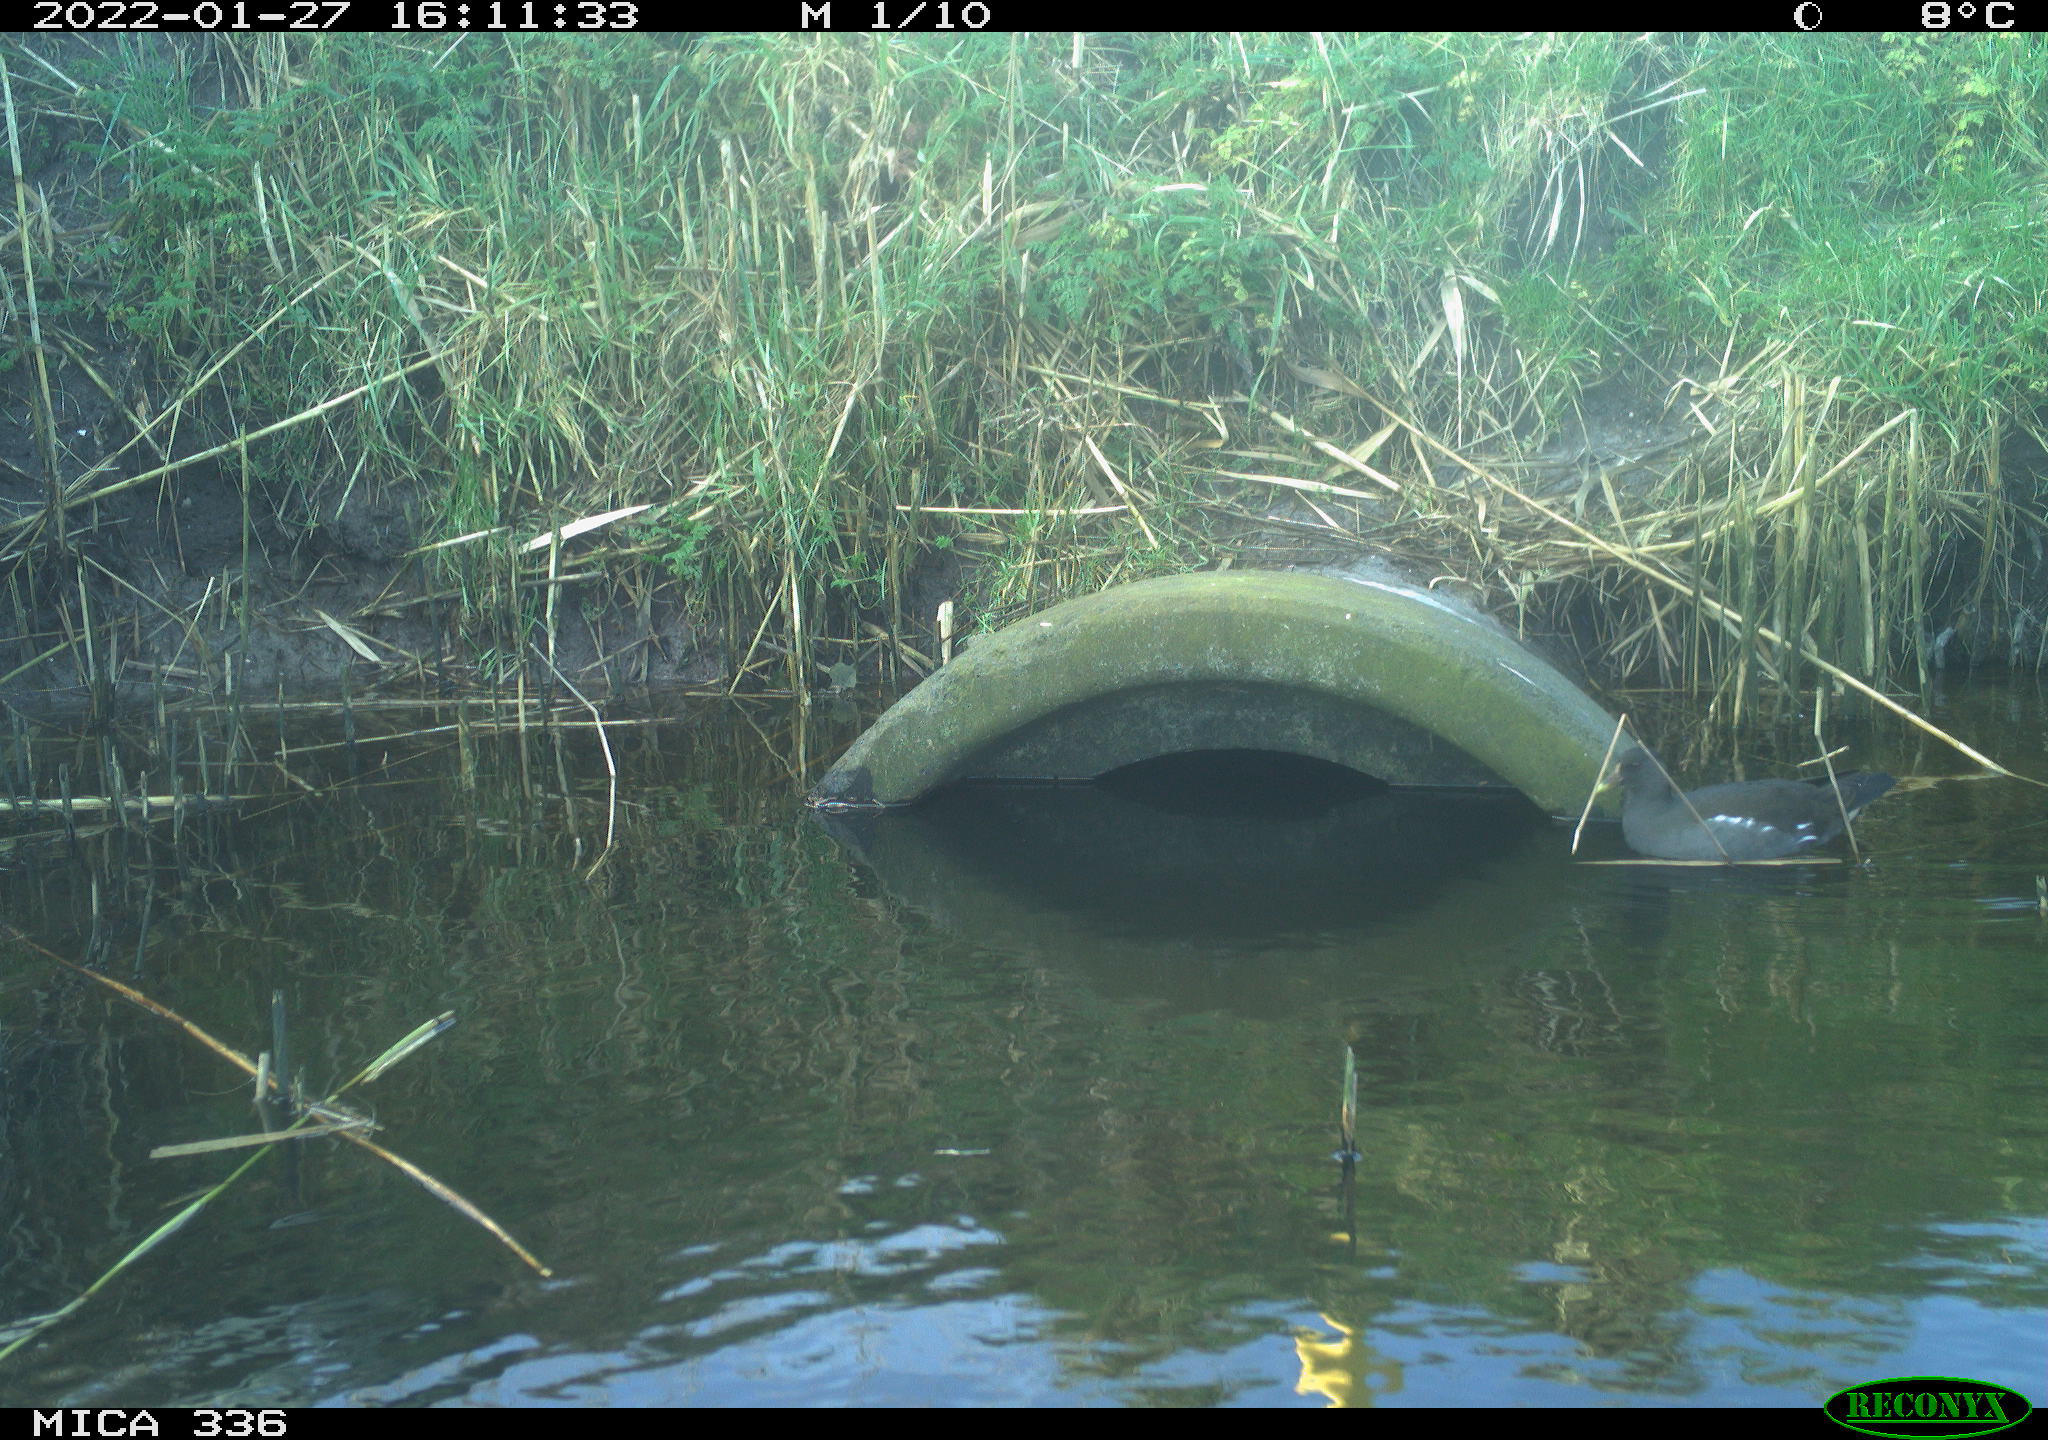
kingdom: Animalia
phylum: Chordata
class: Aves
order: Gruiformes
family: Rallidae
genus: Gallinula
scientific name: Gallinula chloropus
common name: Common moorhen
